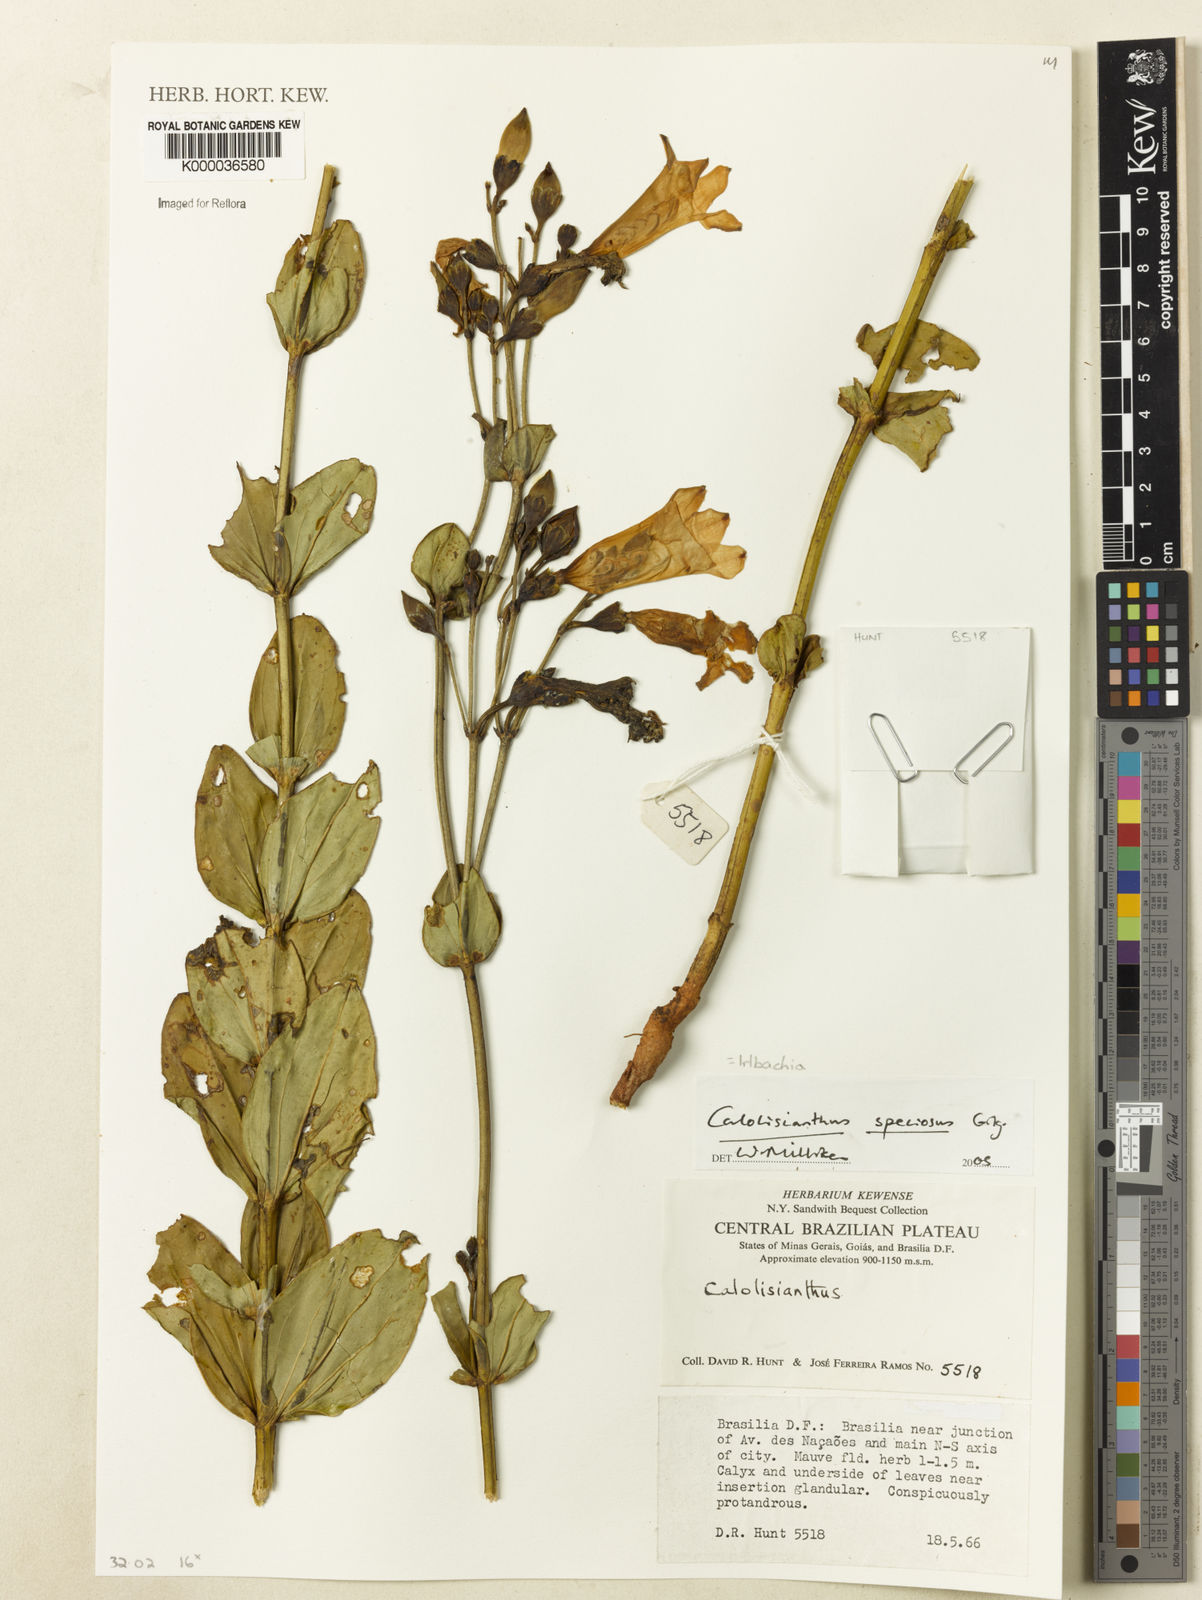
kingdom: Plantae
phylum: Tracheophyta
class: Magnoliopsida
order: Gentianales
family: Gentianaceae
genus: Calolisianthus
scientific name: Calolisianthus speciosus
